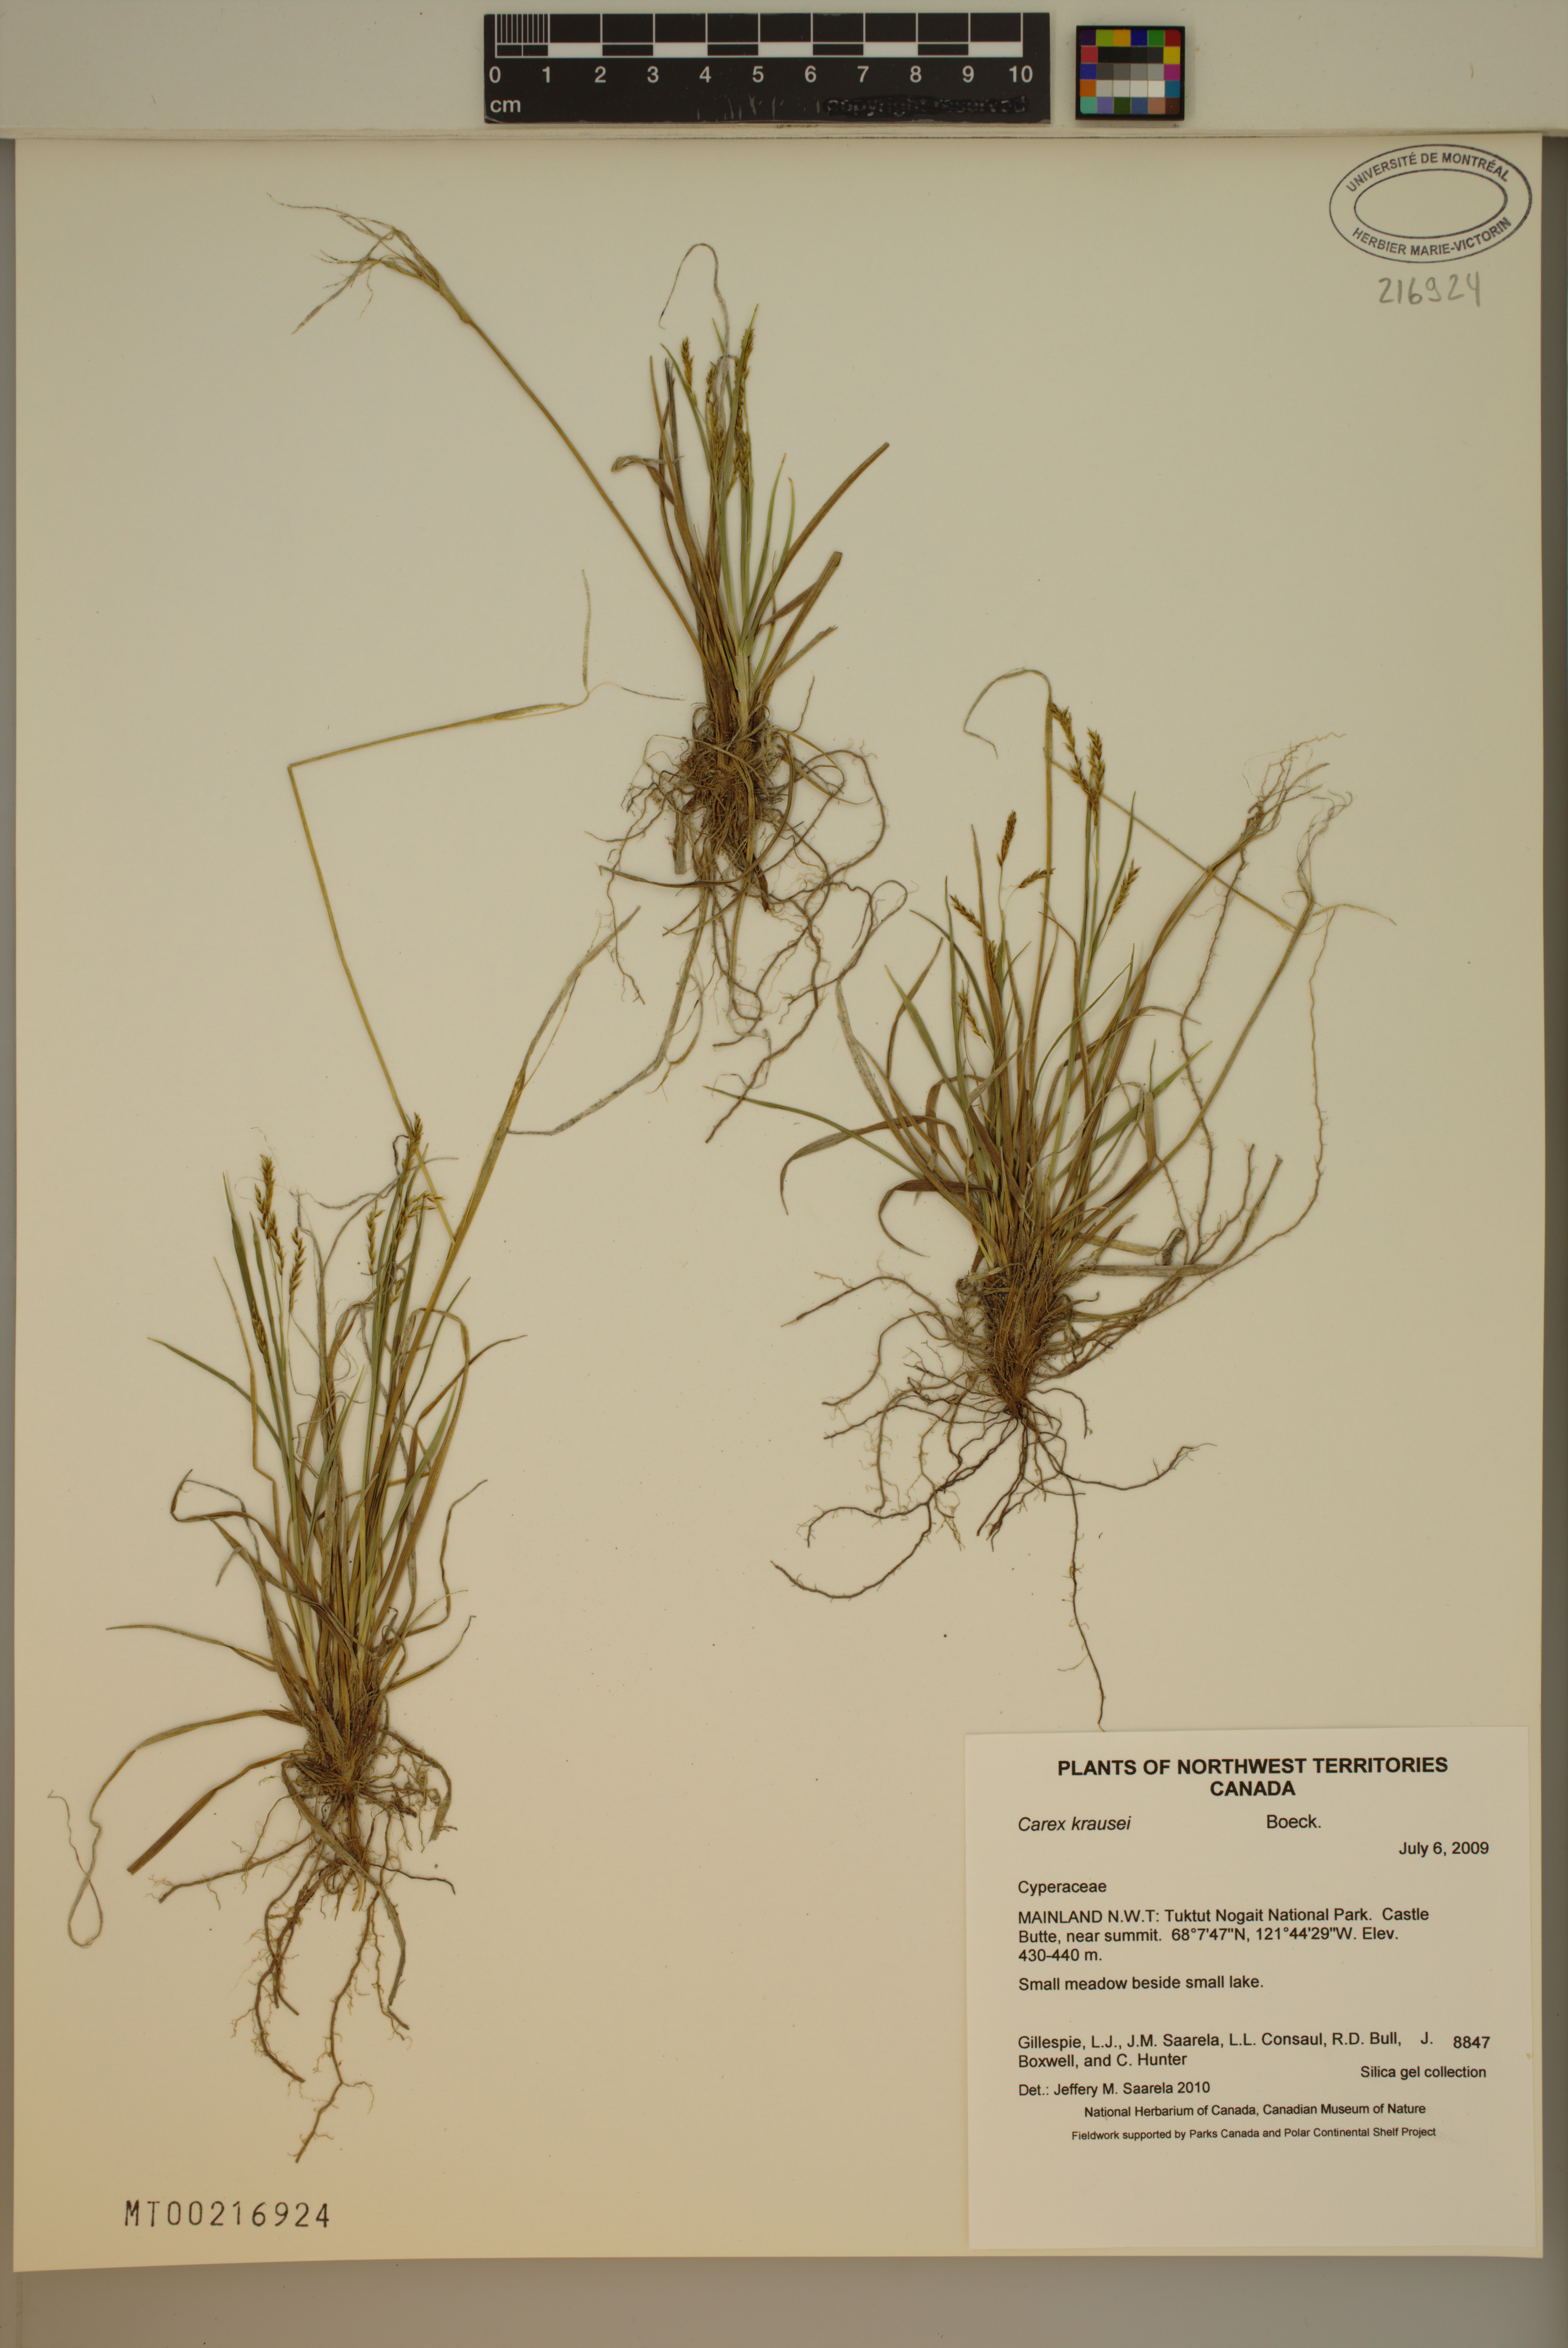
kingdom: Plantae
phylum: Tracheophyta
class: Liliopsida
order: Poales
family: Cyperaceae
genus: Carex
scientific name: Carex krausei
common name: Krause's sedge
